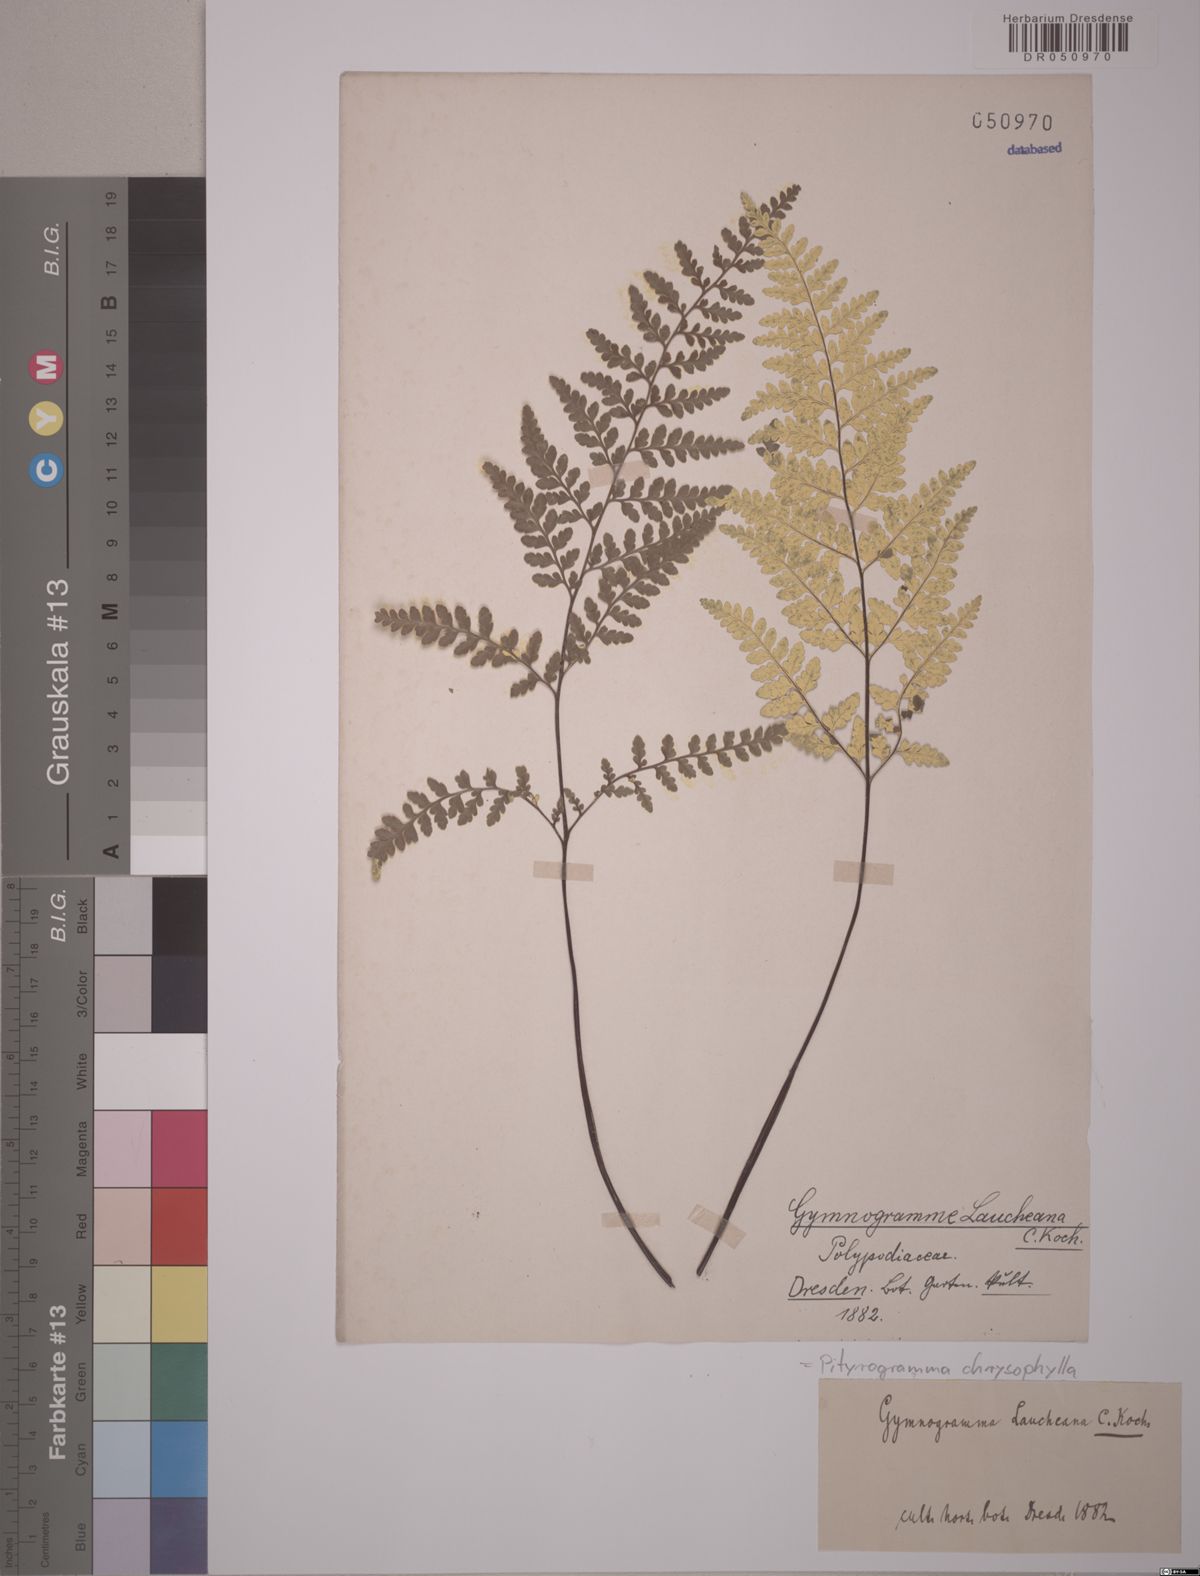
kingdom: Plantae
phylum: Tracheophyta
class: Polypodiopsida
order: Polypodiales
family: Pteridaceae
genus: Pityrogramma
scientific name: Pityrogramma chrysophylla
